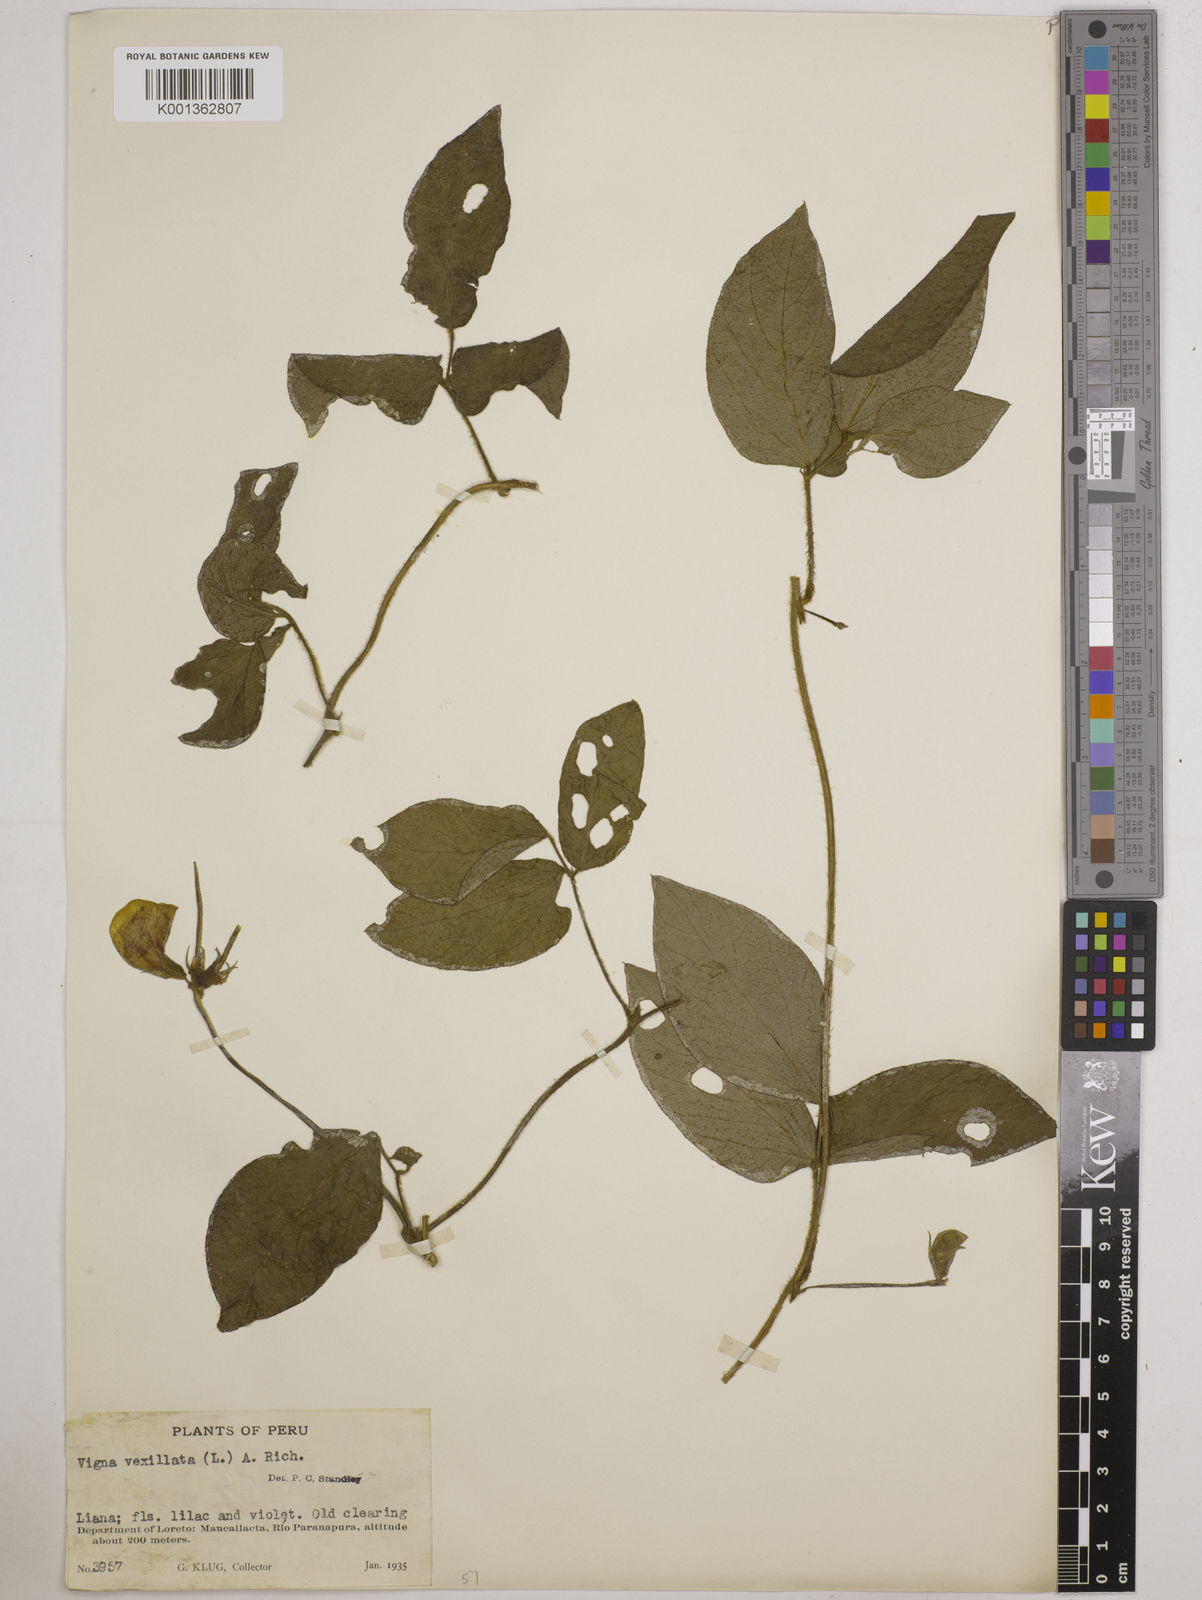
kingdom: Plantae
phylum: Tracheophyta
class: Magnoliopsida
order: Fabales
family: Fabaceae
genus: Vigna
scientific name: Vigna vexillata
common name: Zombi pea
